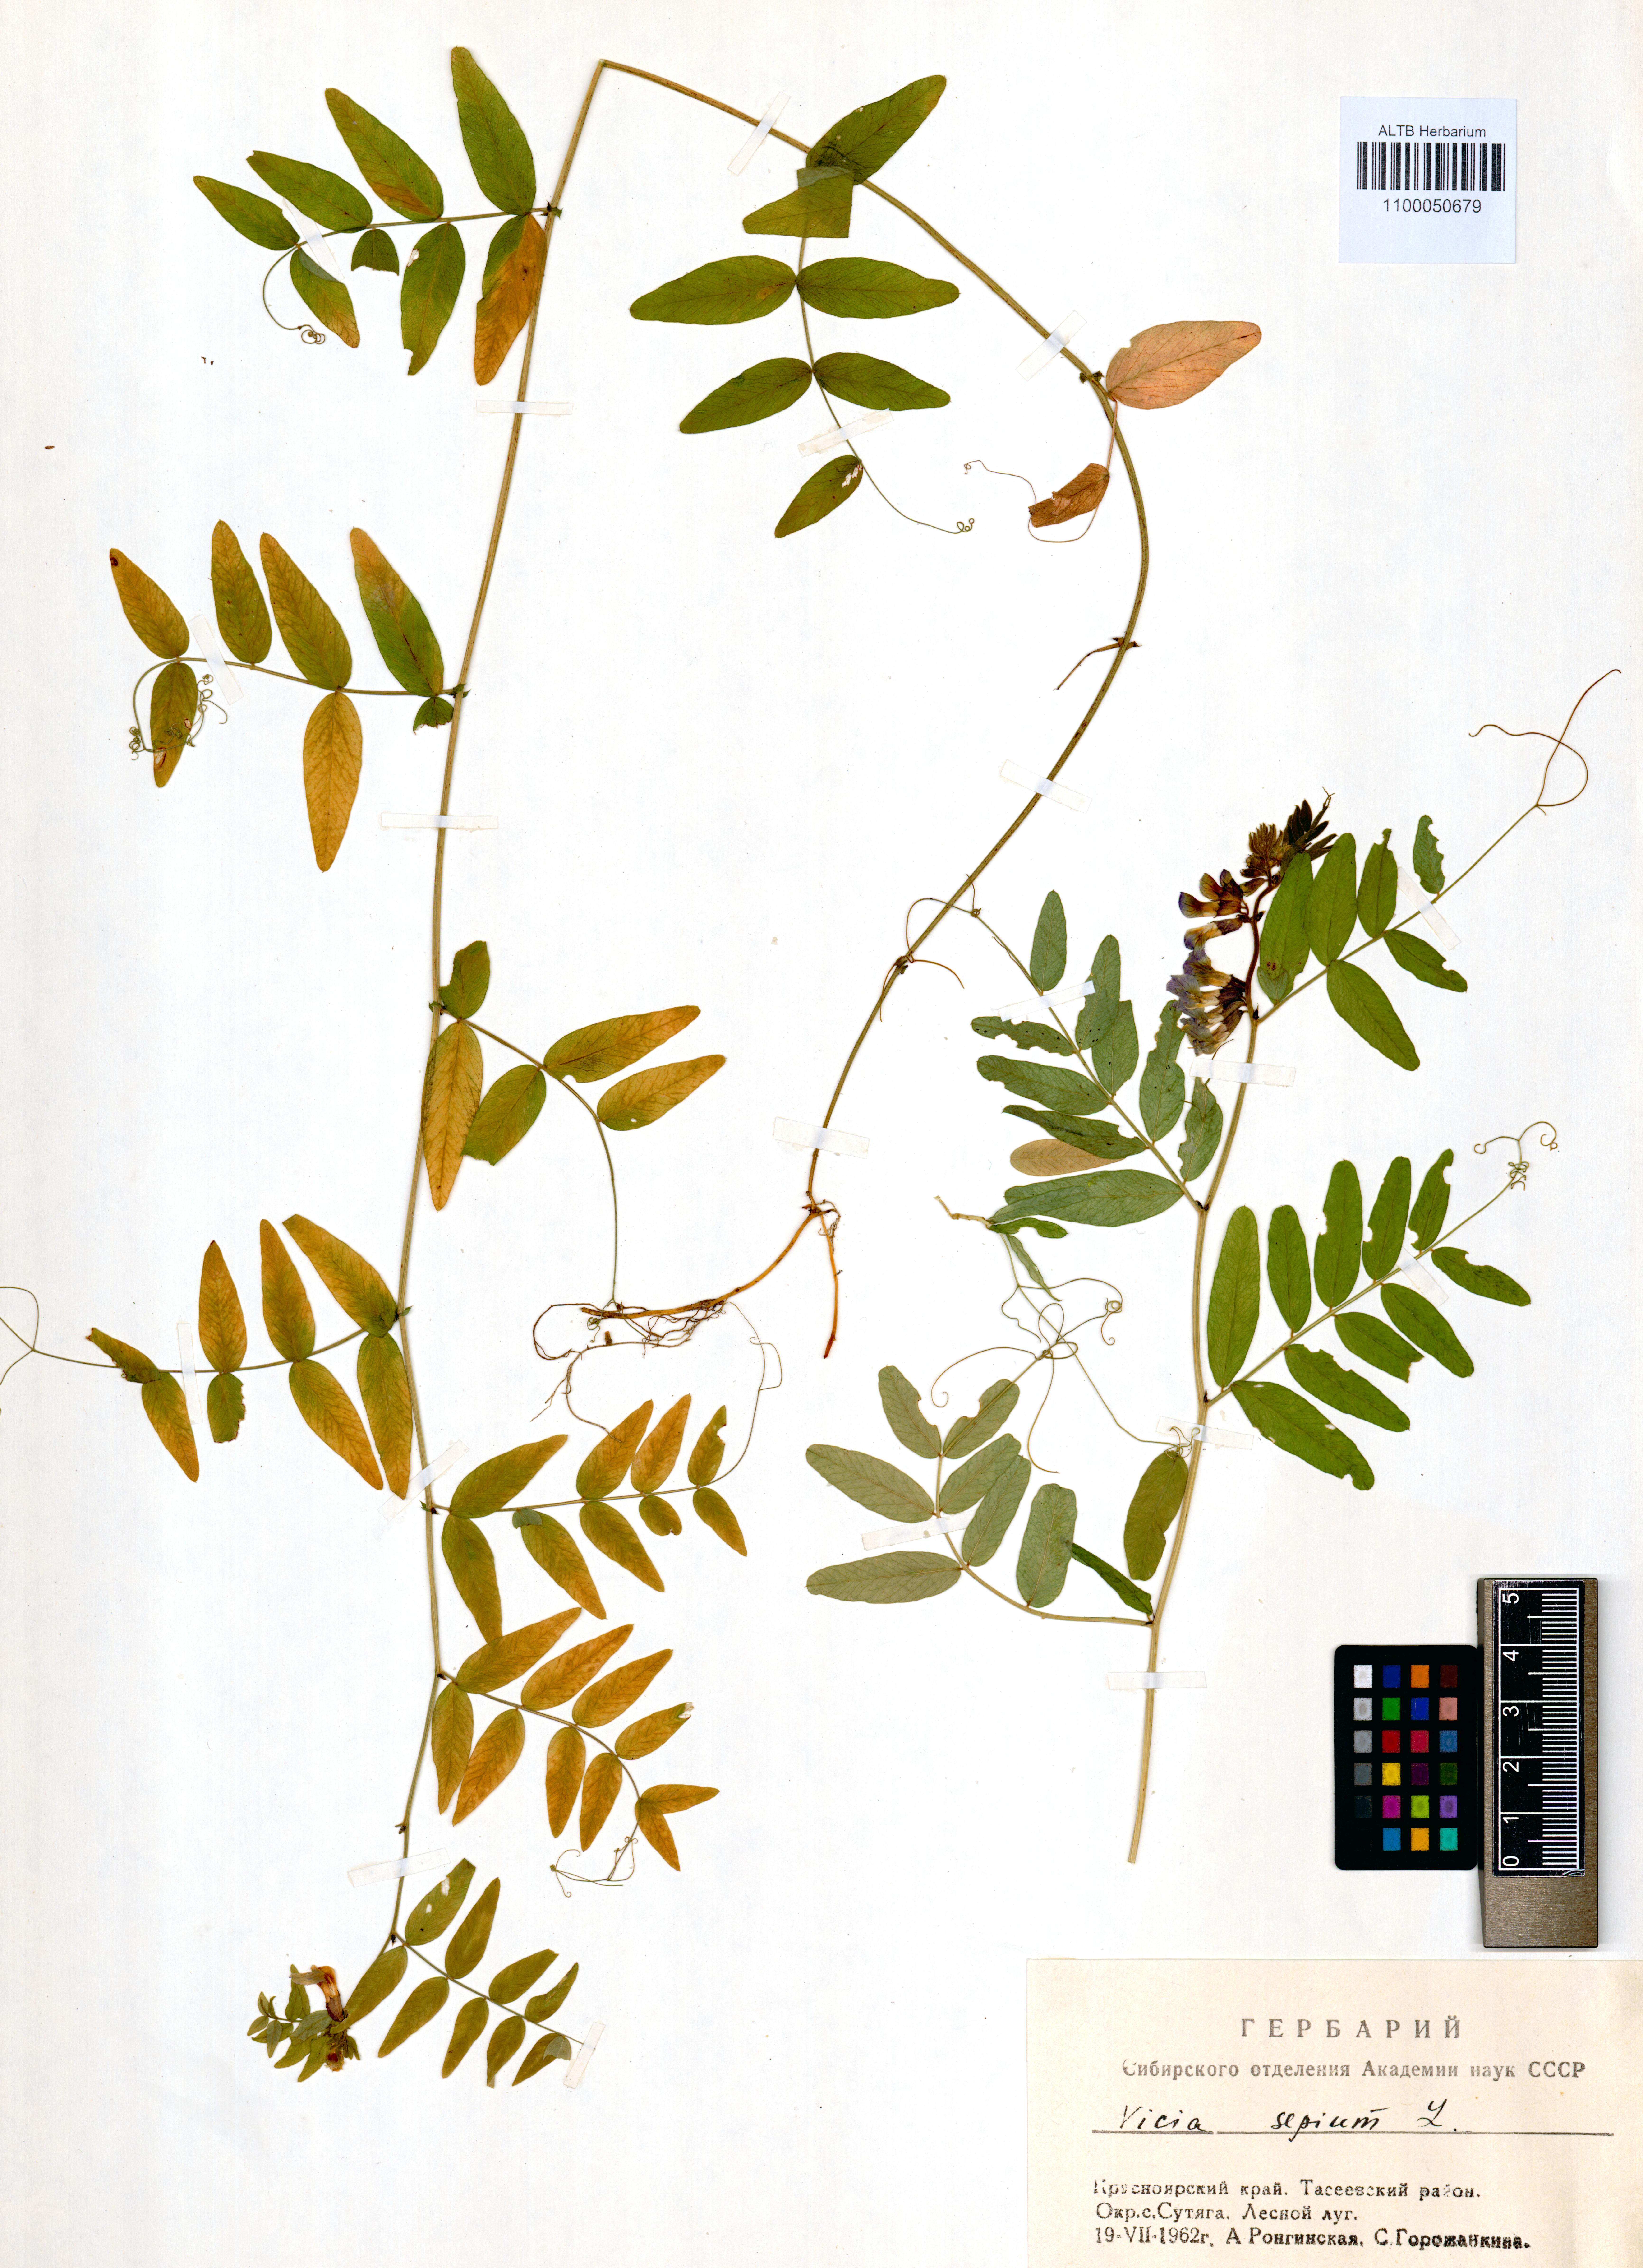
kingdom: Plantae
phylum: Tracheophyta
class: Magnoliopsida
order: Fabales
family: Fabaceae
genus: Vicia
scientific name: Vicia sepium
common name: Bush vetch
